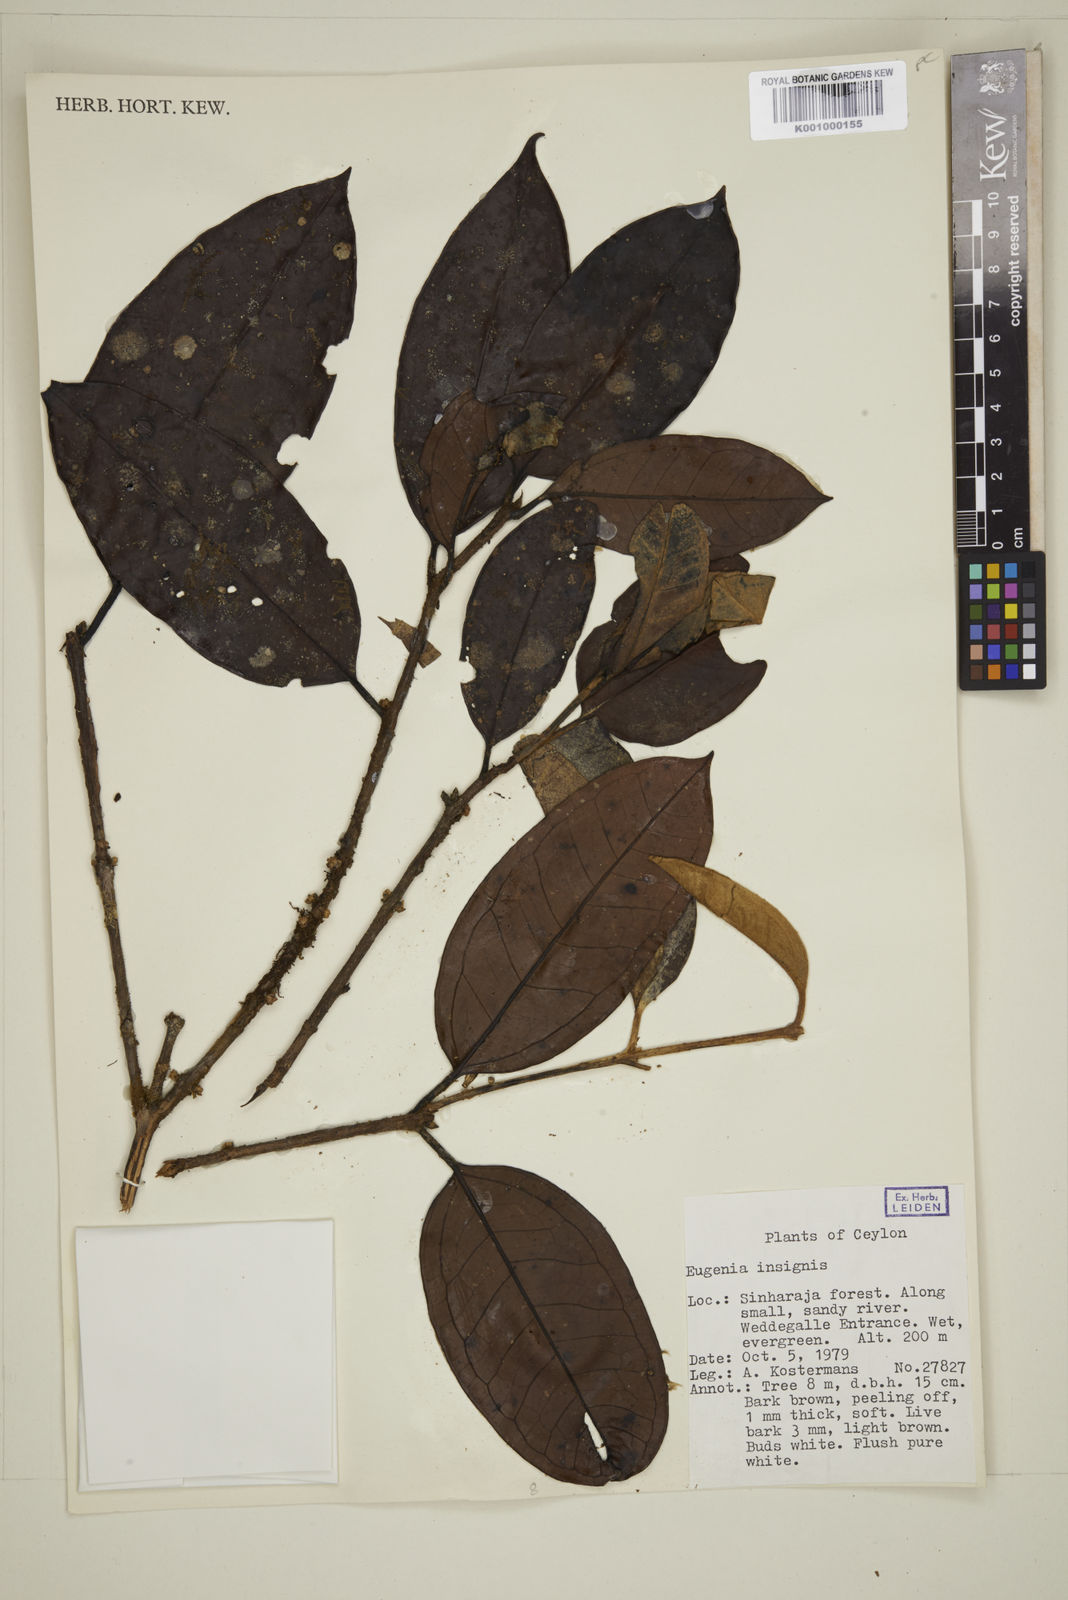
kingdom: Plantae
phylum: Tracheophyta
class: Magnoliopsida
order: Myrtales
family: Myrtaceae
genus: Eugenia
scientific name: Eugenia fulva
